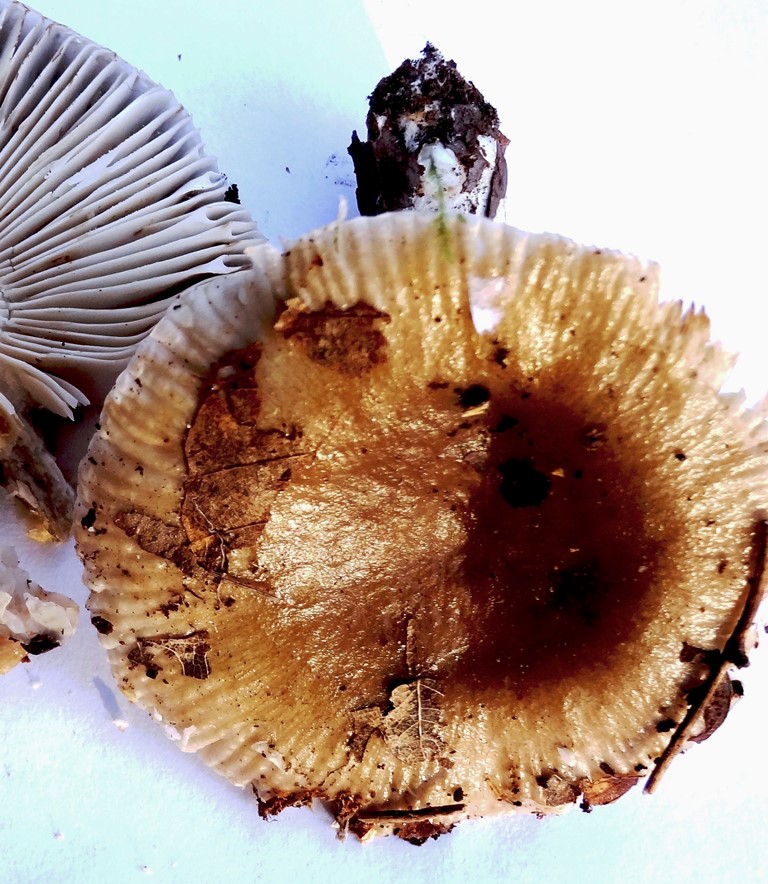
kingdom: Fungi
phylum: Basidiomycota
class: Agaricomycetes
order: Russulales
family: Russulaceae
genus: Russula
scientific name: Russula amoenolens
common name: skarp kam-skørhat
